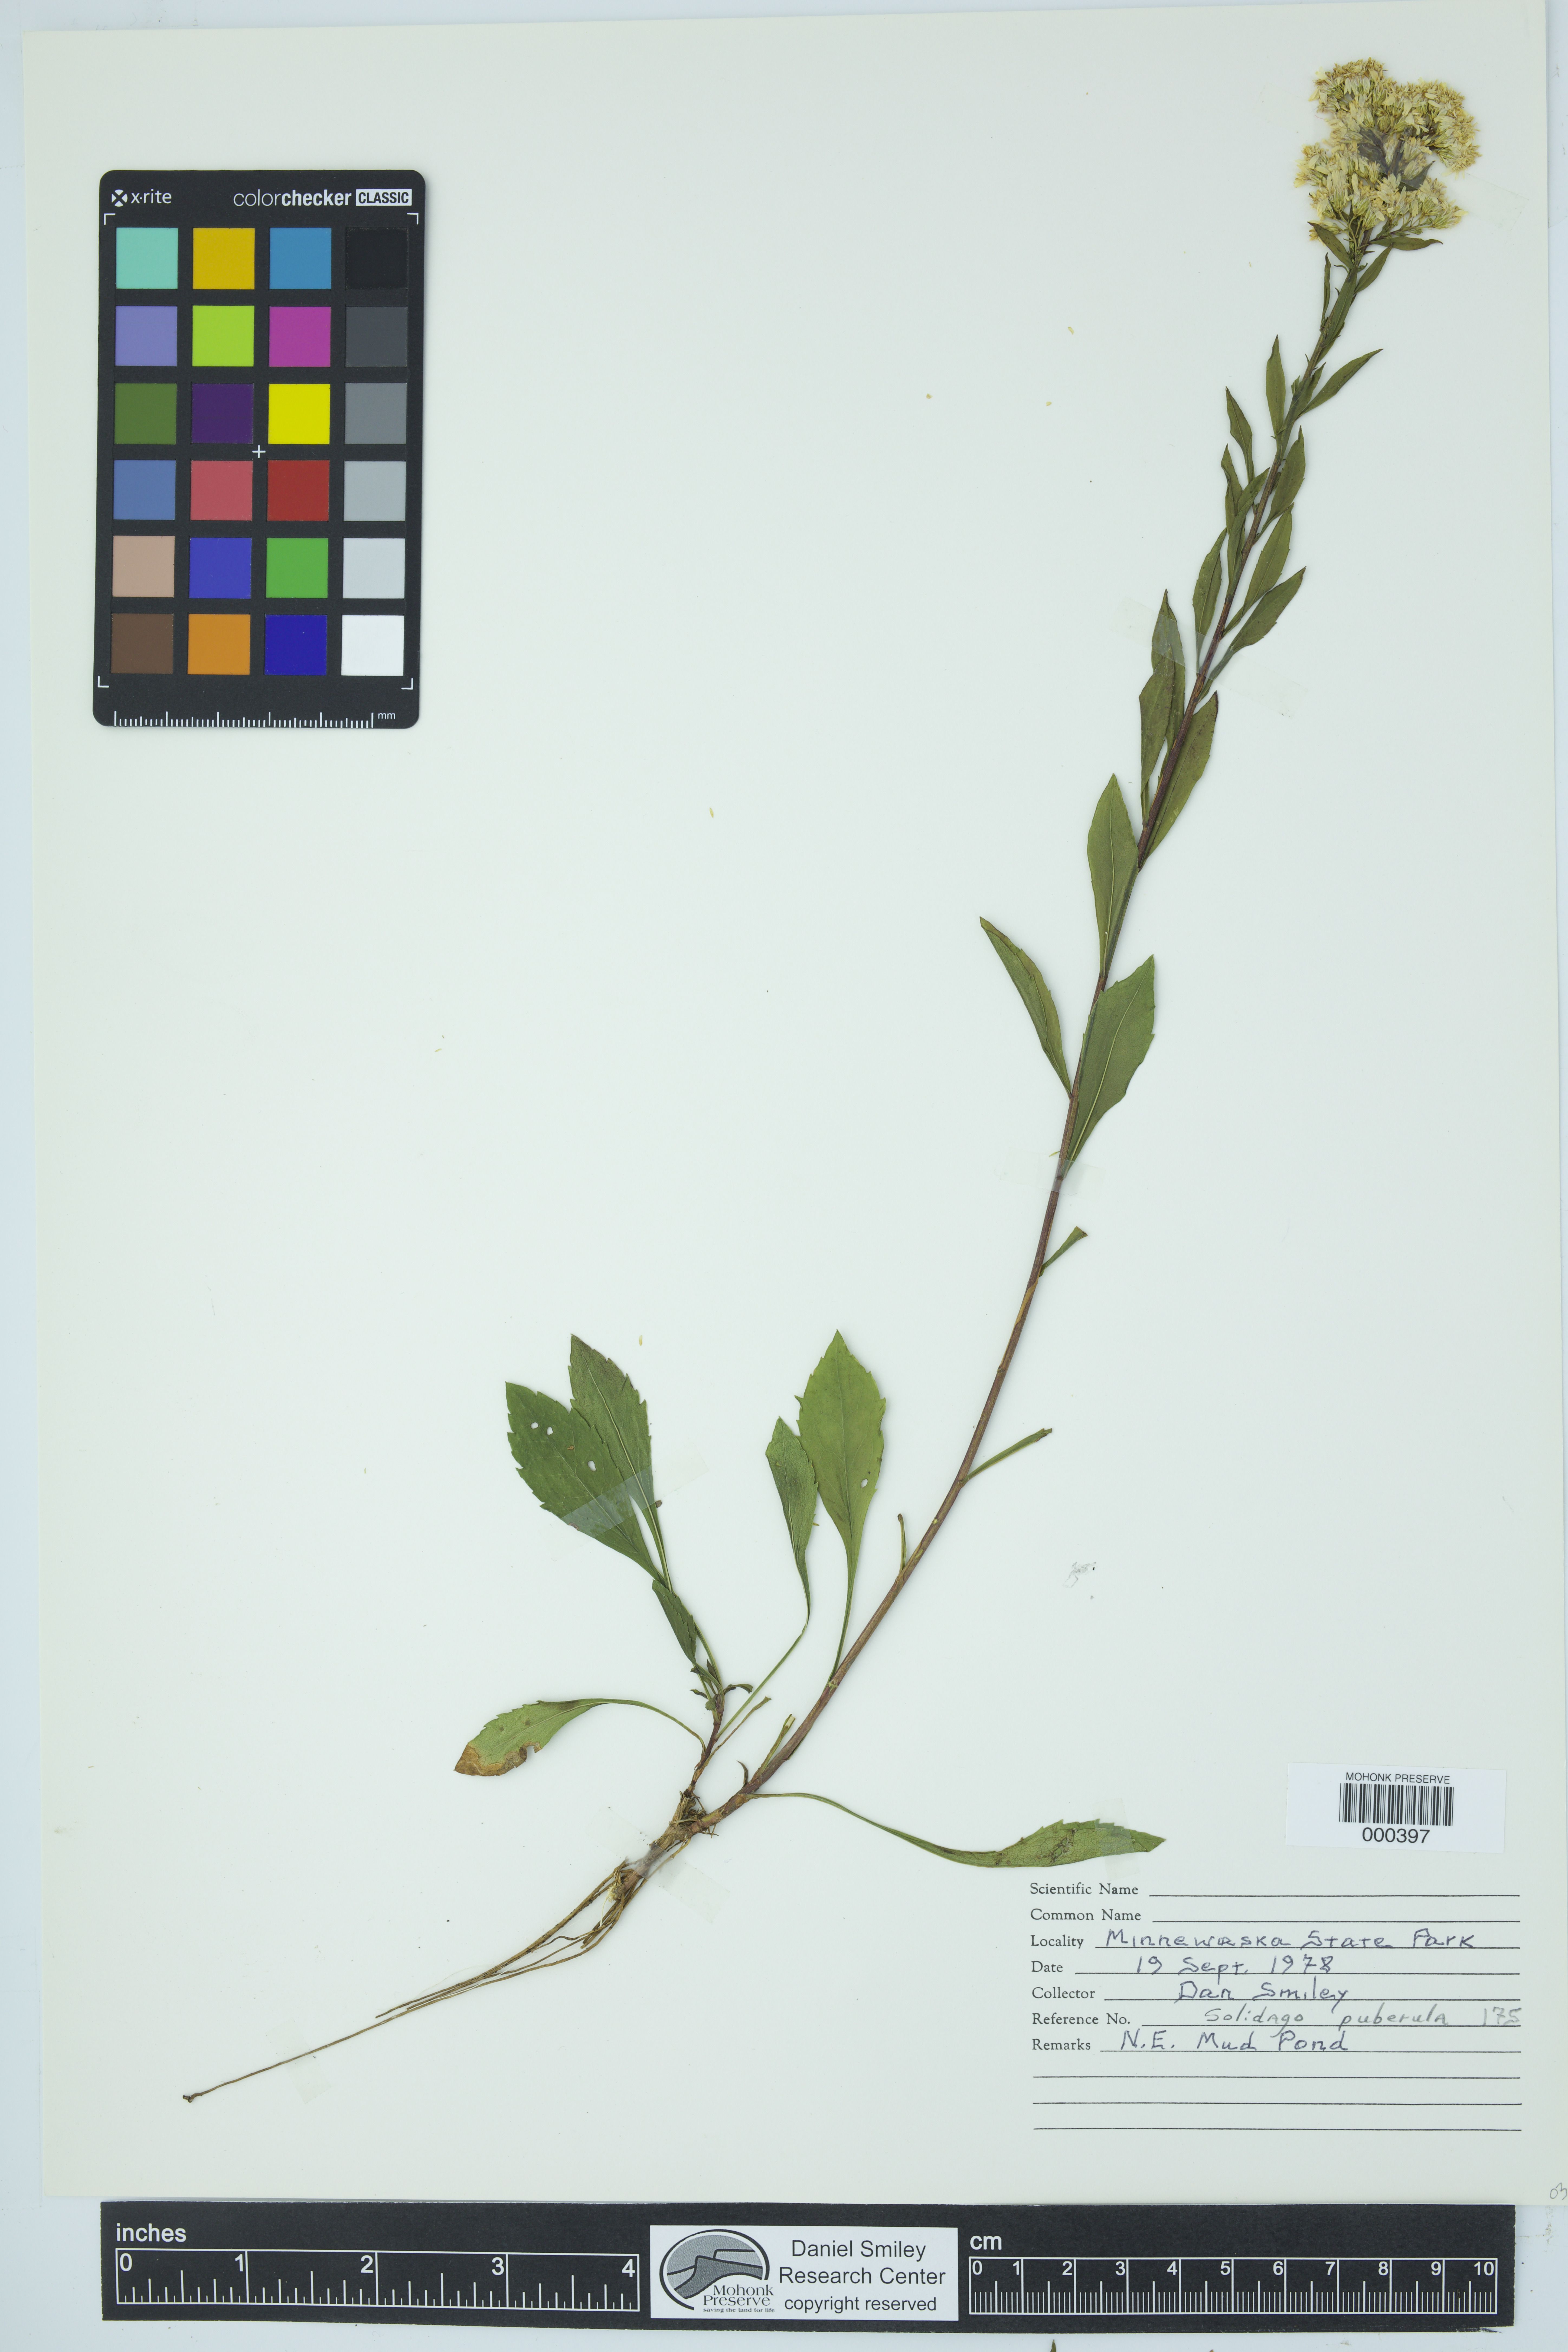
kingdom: Plantae
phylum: Tracheophyta
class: Magnoliopsida
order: Asterales
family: Asteraceae
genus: Solidago
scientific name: Solidago puberula
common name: Downy goldenrod
